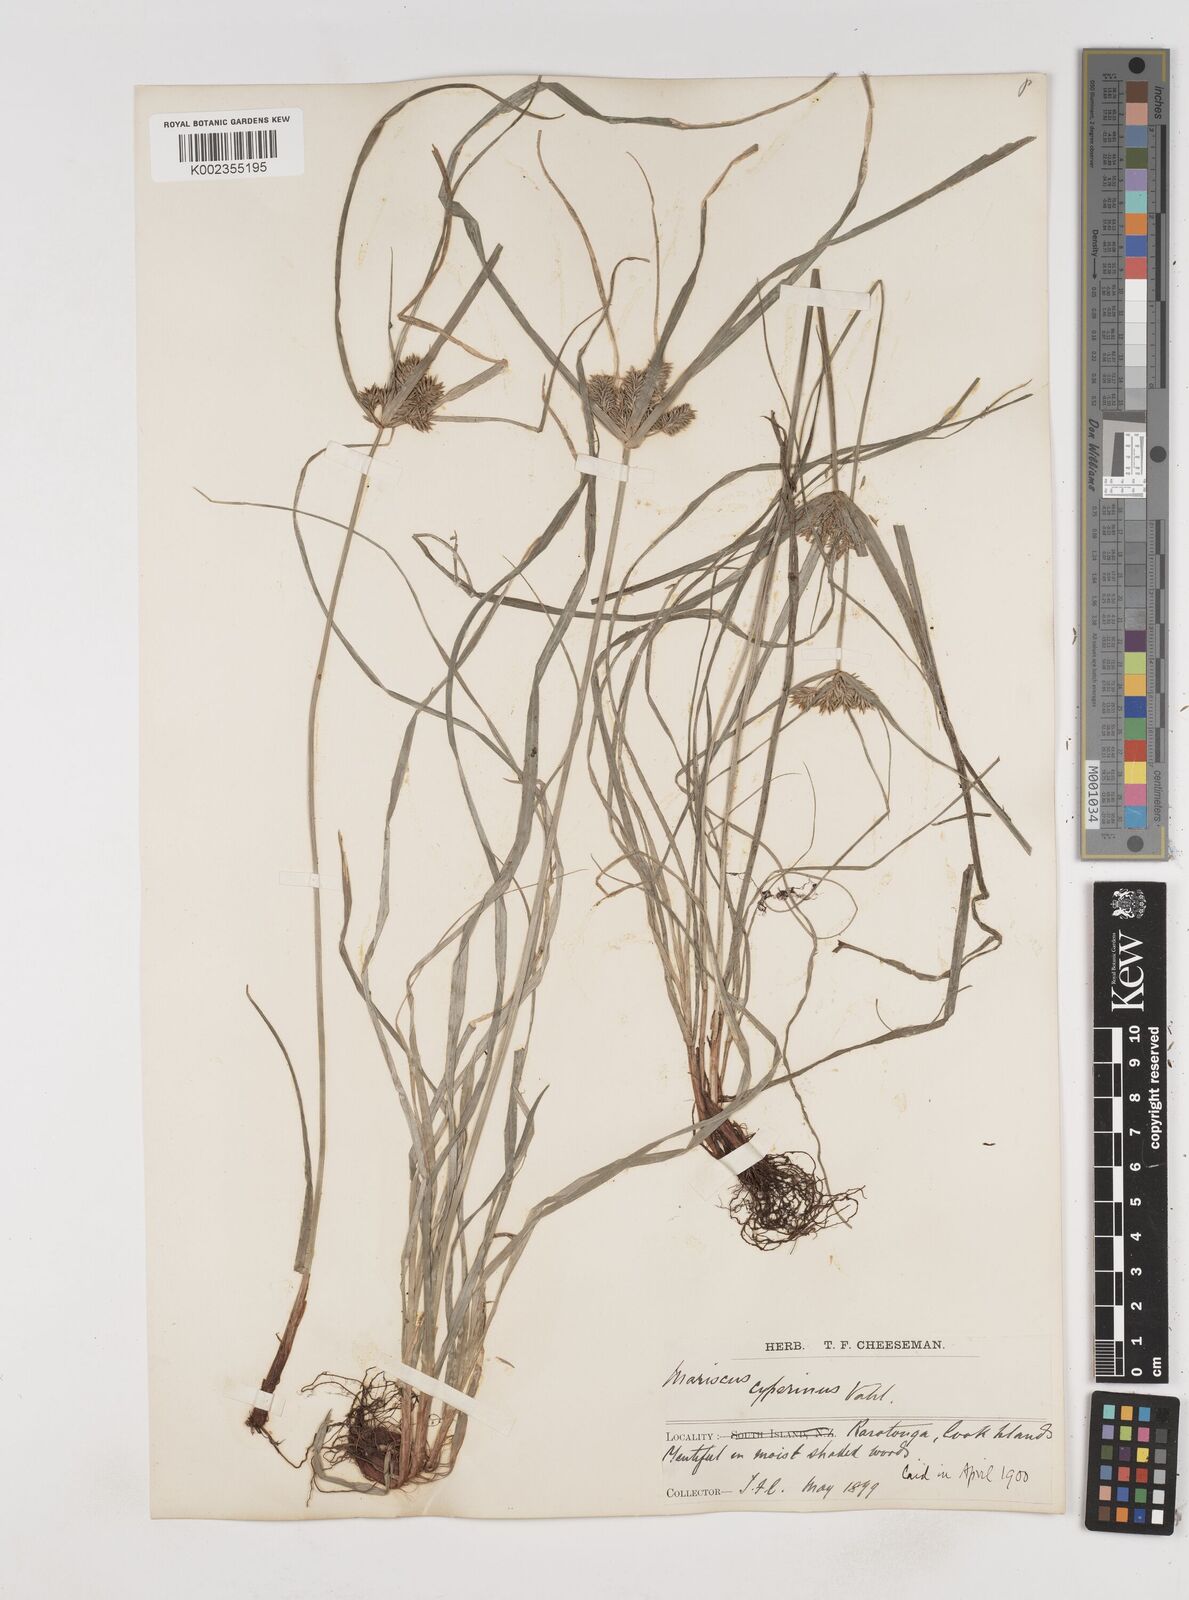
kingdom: Plantae
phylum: Tracheophyta
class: Liliopsida
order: Poales
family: Cyperaceae
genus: Cyperus
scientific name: Cyperus cyperinus
